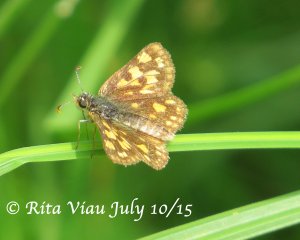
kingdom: Animalia
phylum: Arthropoda
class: Insecta
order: Lepidoptera
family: Hesperiidae
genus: Carterocephalus
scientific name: Carterocephalus palaemon
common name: Chequered Skipper
